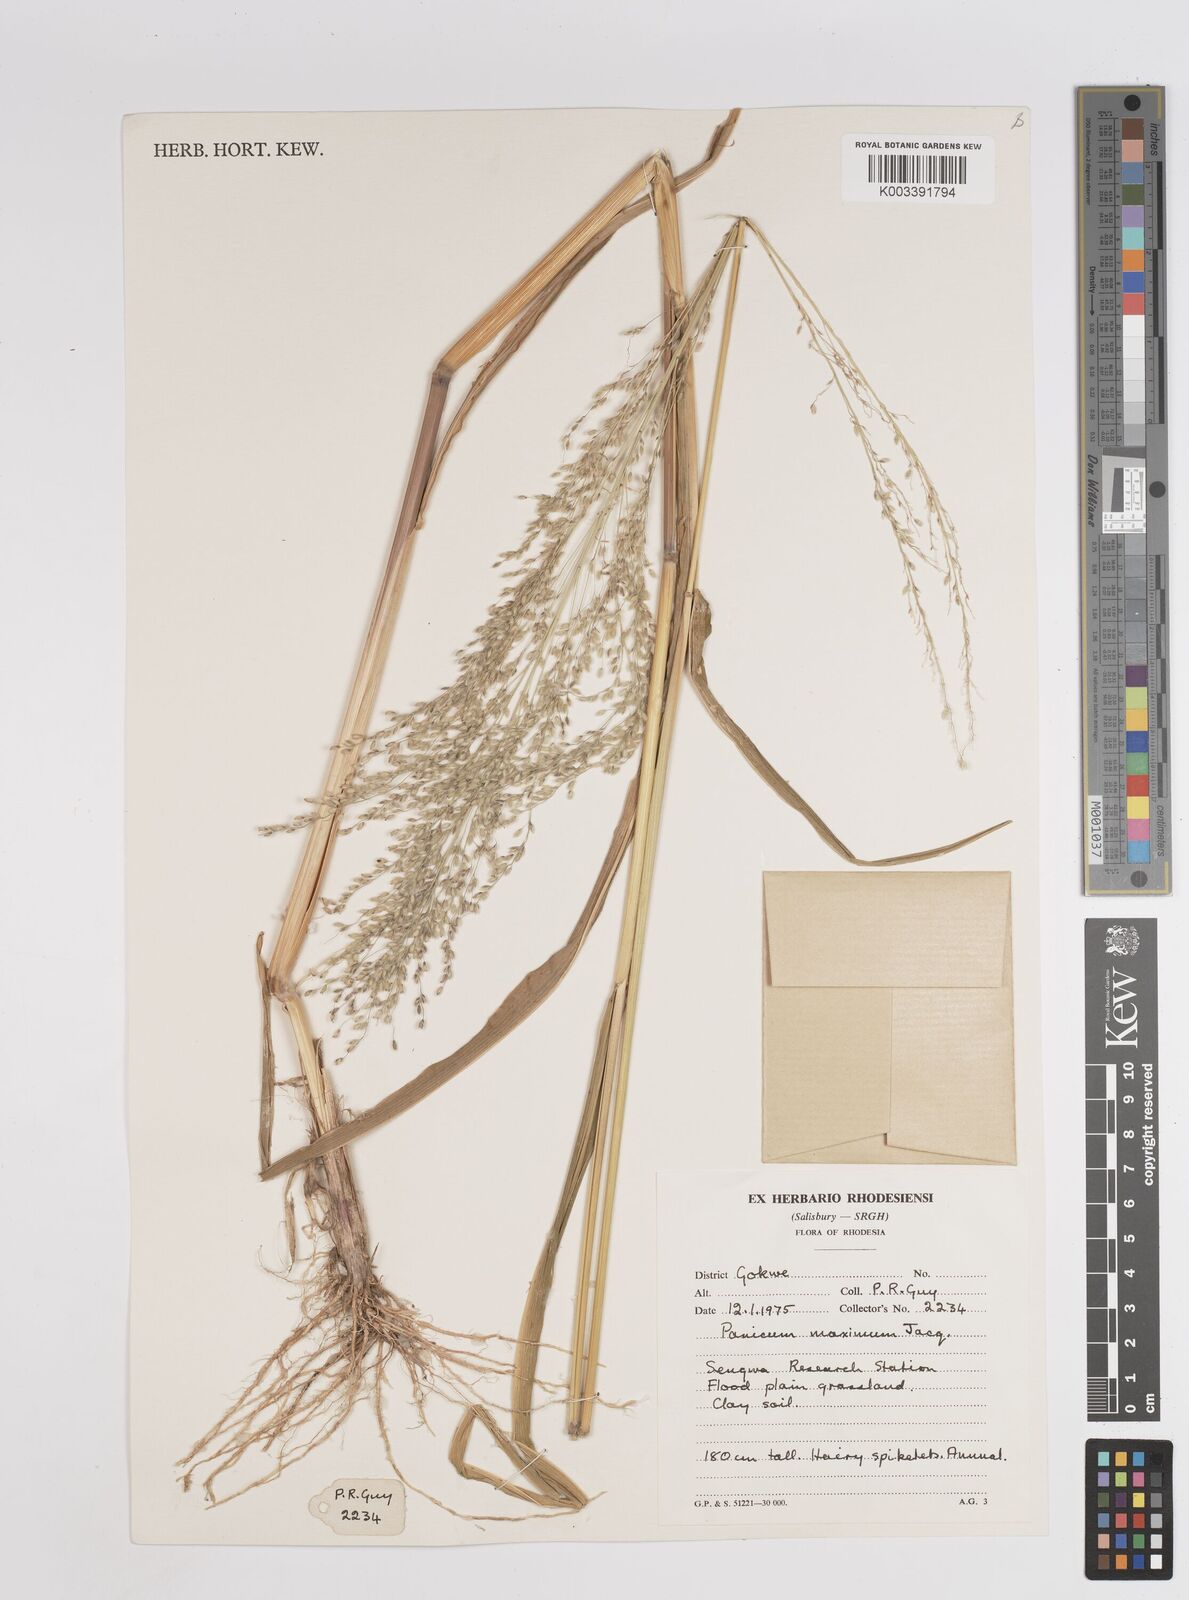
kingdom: Plantae
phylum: Tracheophyta
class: Liliopsida
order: Poales
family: Poaceae
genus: Megathyrsus
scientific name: Megathyrsus maximus
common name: Guineagrass
